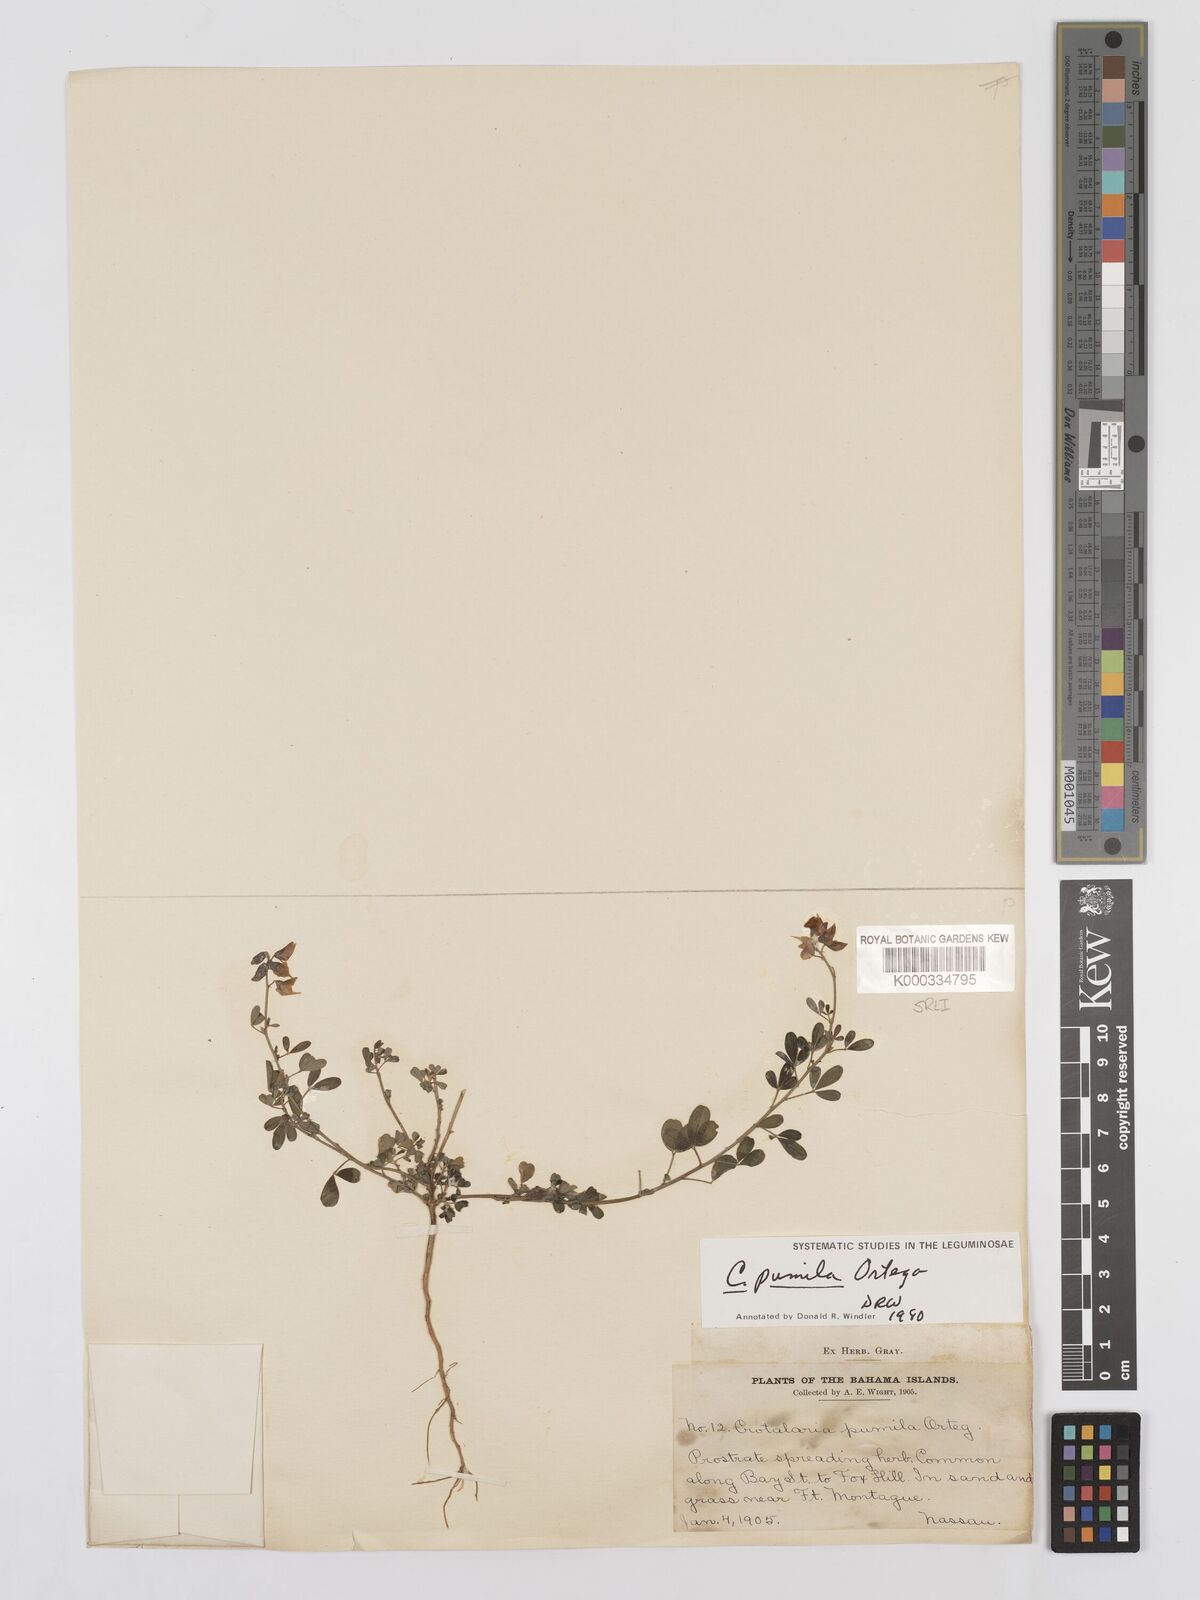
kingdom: Plantae
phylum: Tracheophyta
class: Magnoliopsida
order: Fabales
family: Fabaceae
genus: Crotalaria
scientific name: Crotalaria pumila
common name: Low rattlebox
